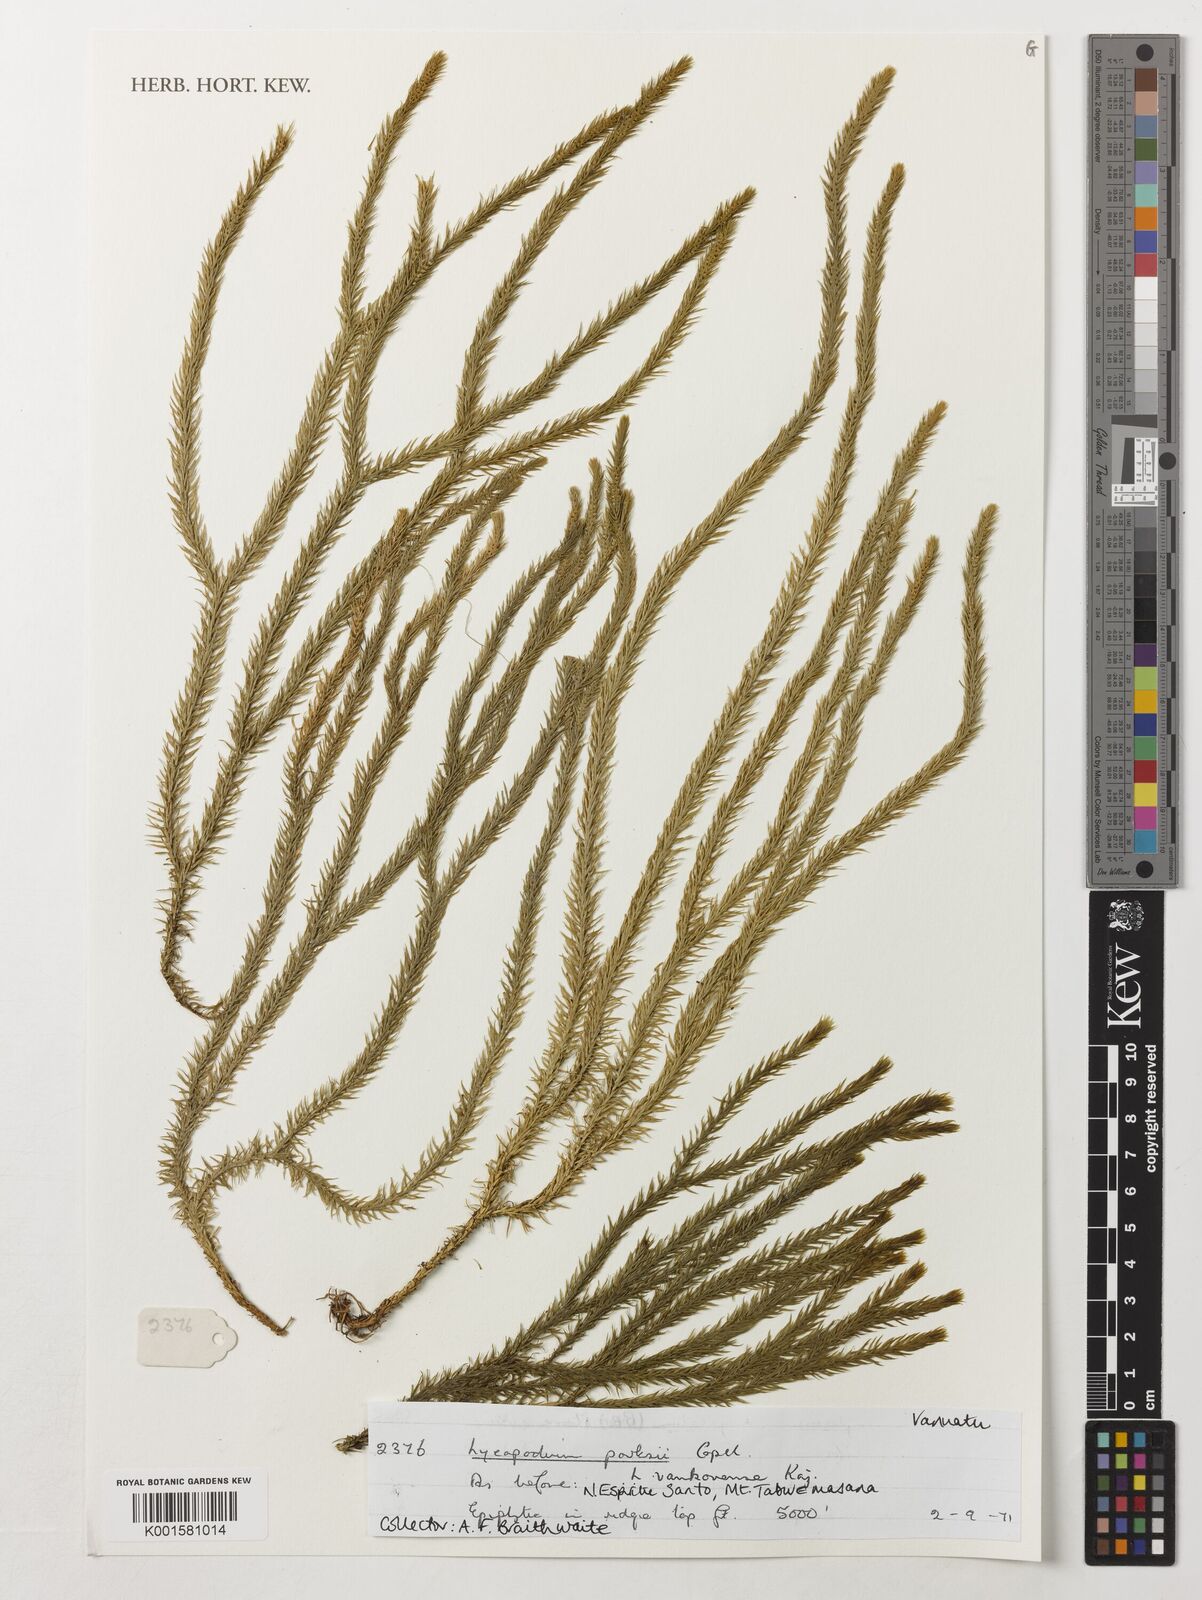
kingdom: Plantae
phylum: Tracheophyta
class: Lycopodiopsida
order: Lycopodiales
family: Lycopodiaceae
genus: Phlegmariurus
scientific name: Phlegmariurus parksii
